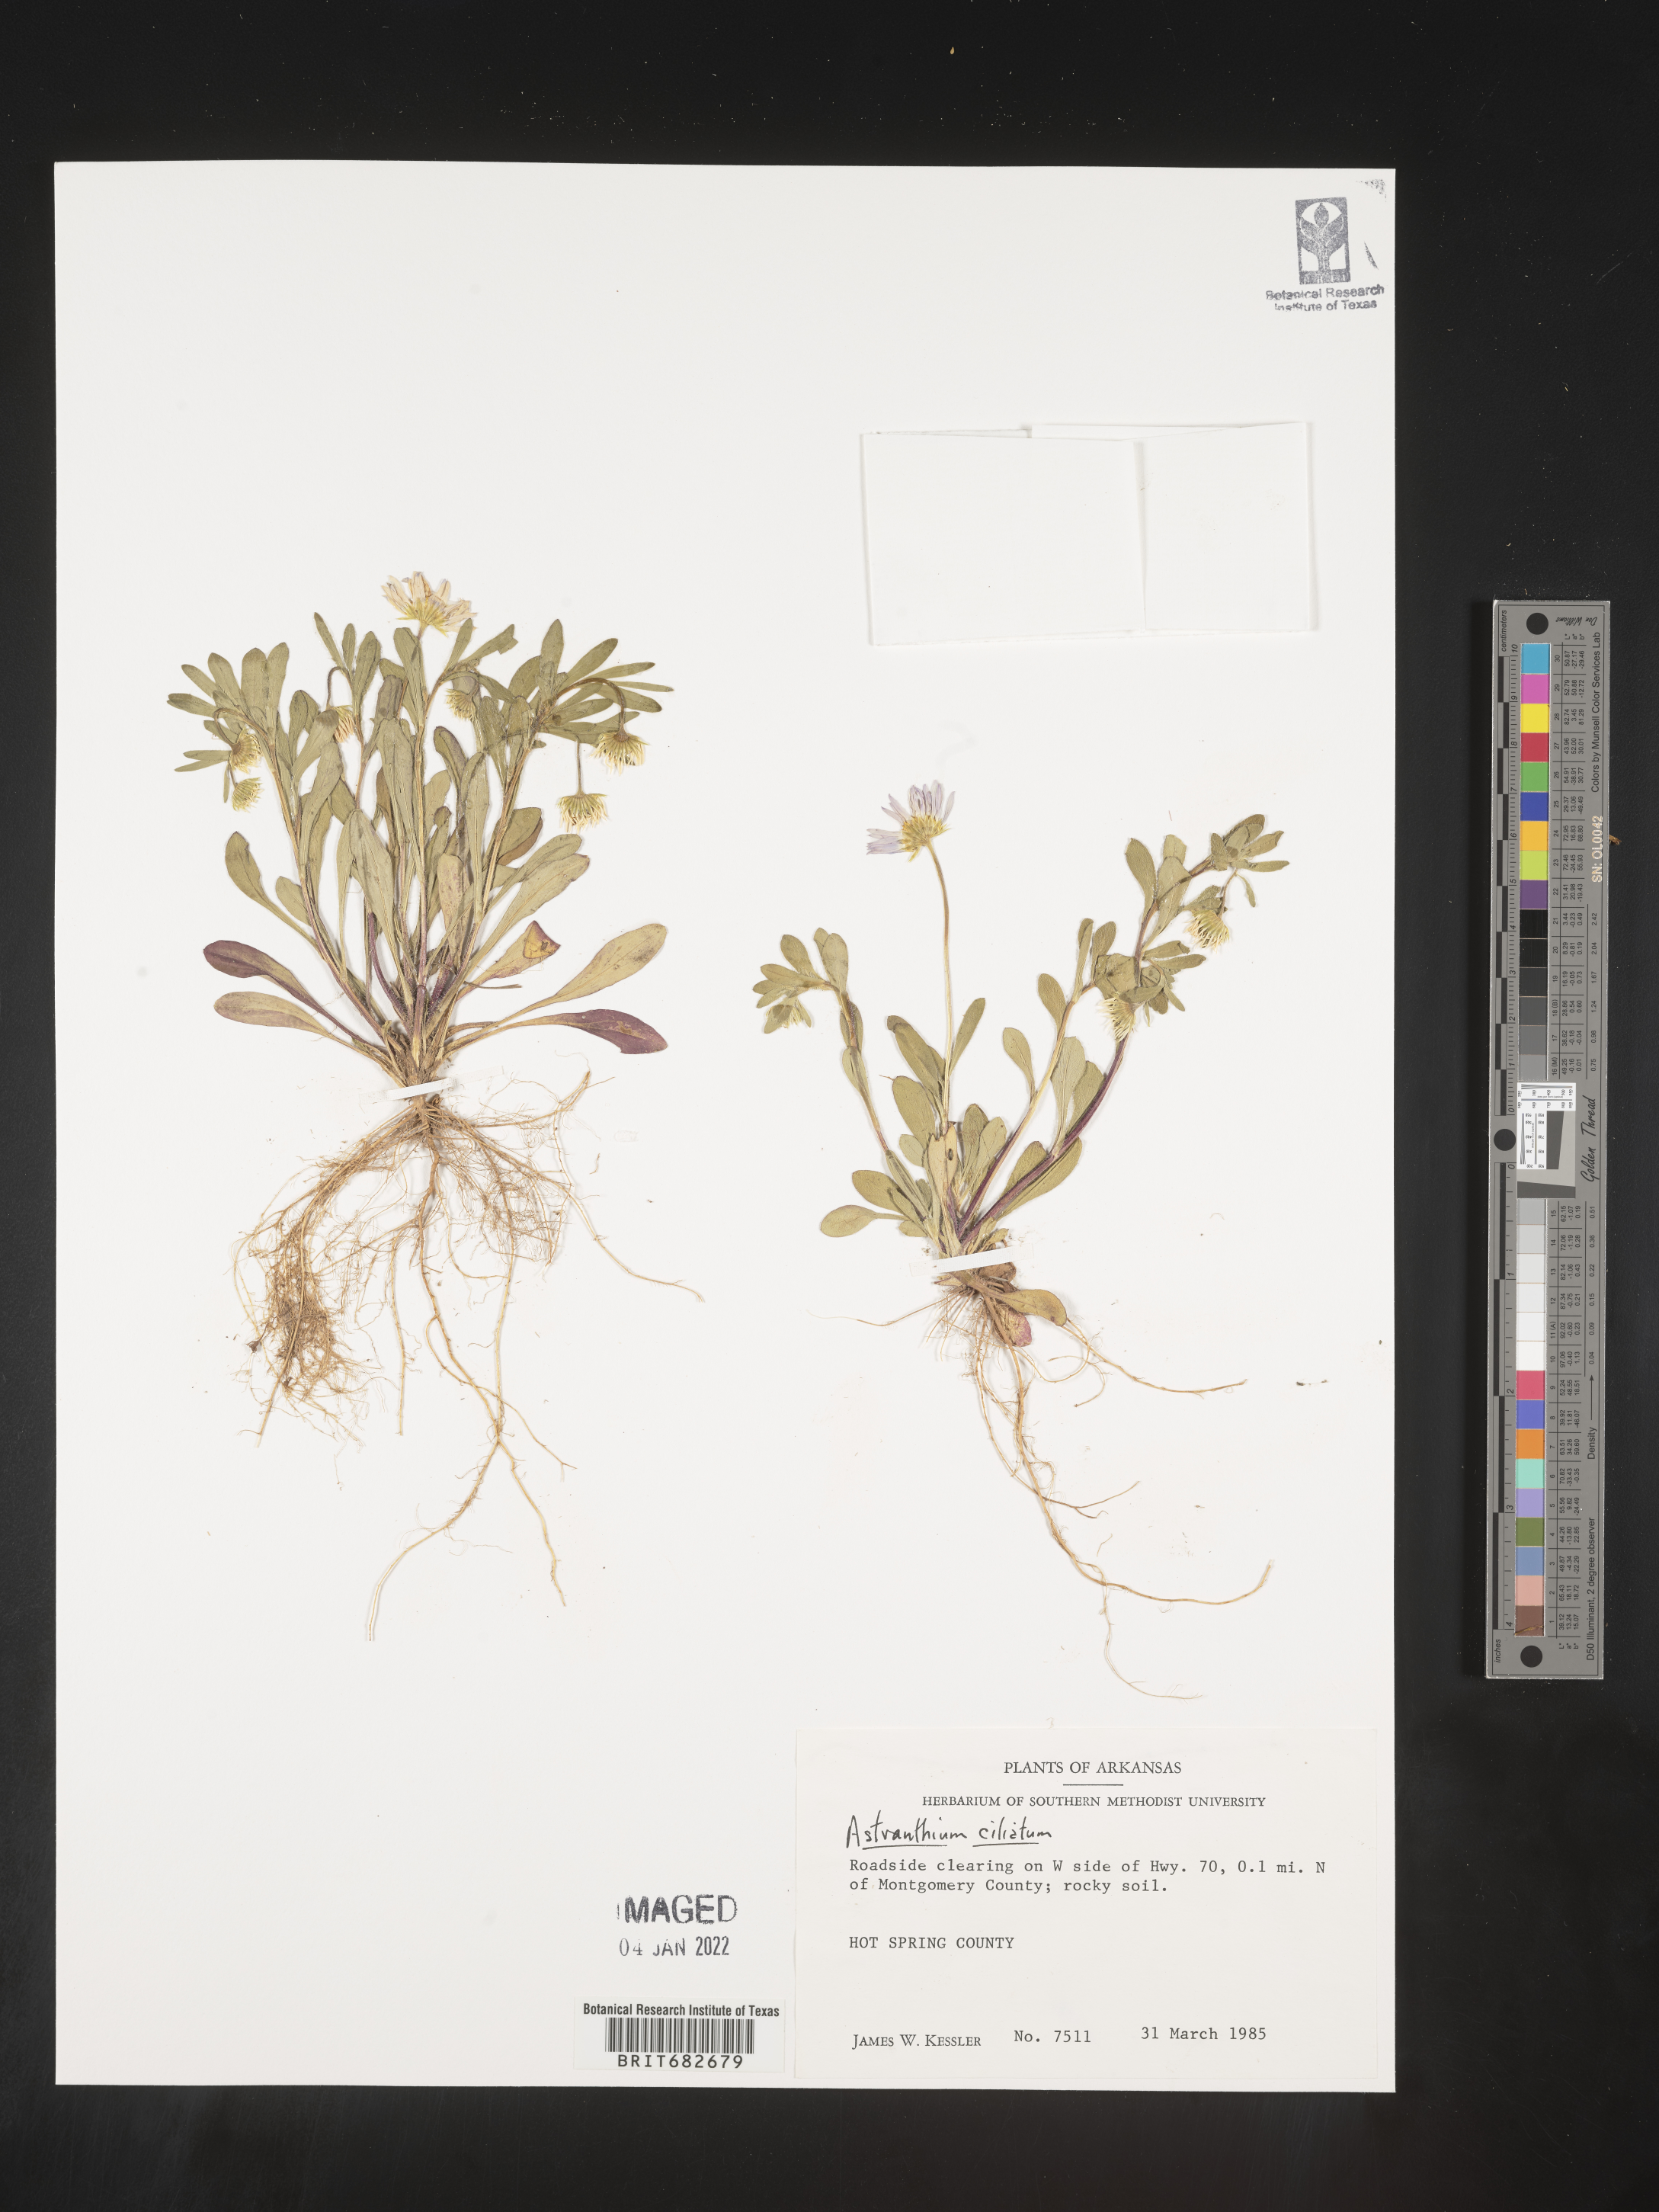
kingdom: Plantae
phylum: Tracheophyta
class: Magnoliopsida
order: Asterales
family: Asteraceae
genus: Astranthium
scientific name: Astranthium ciliatum
